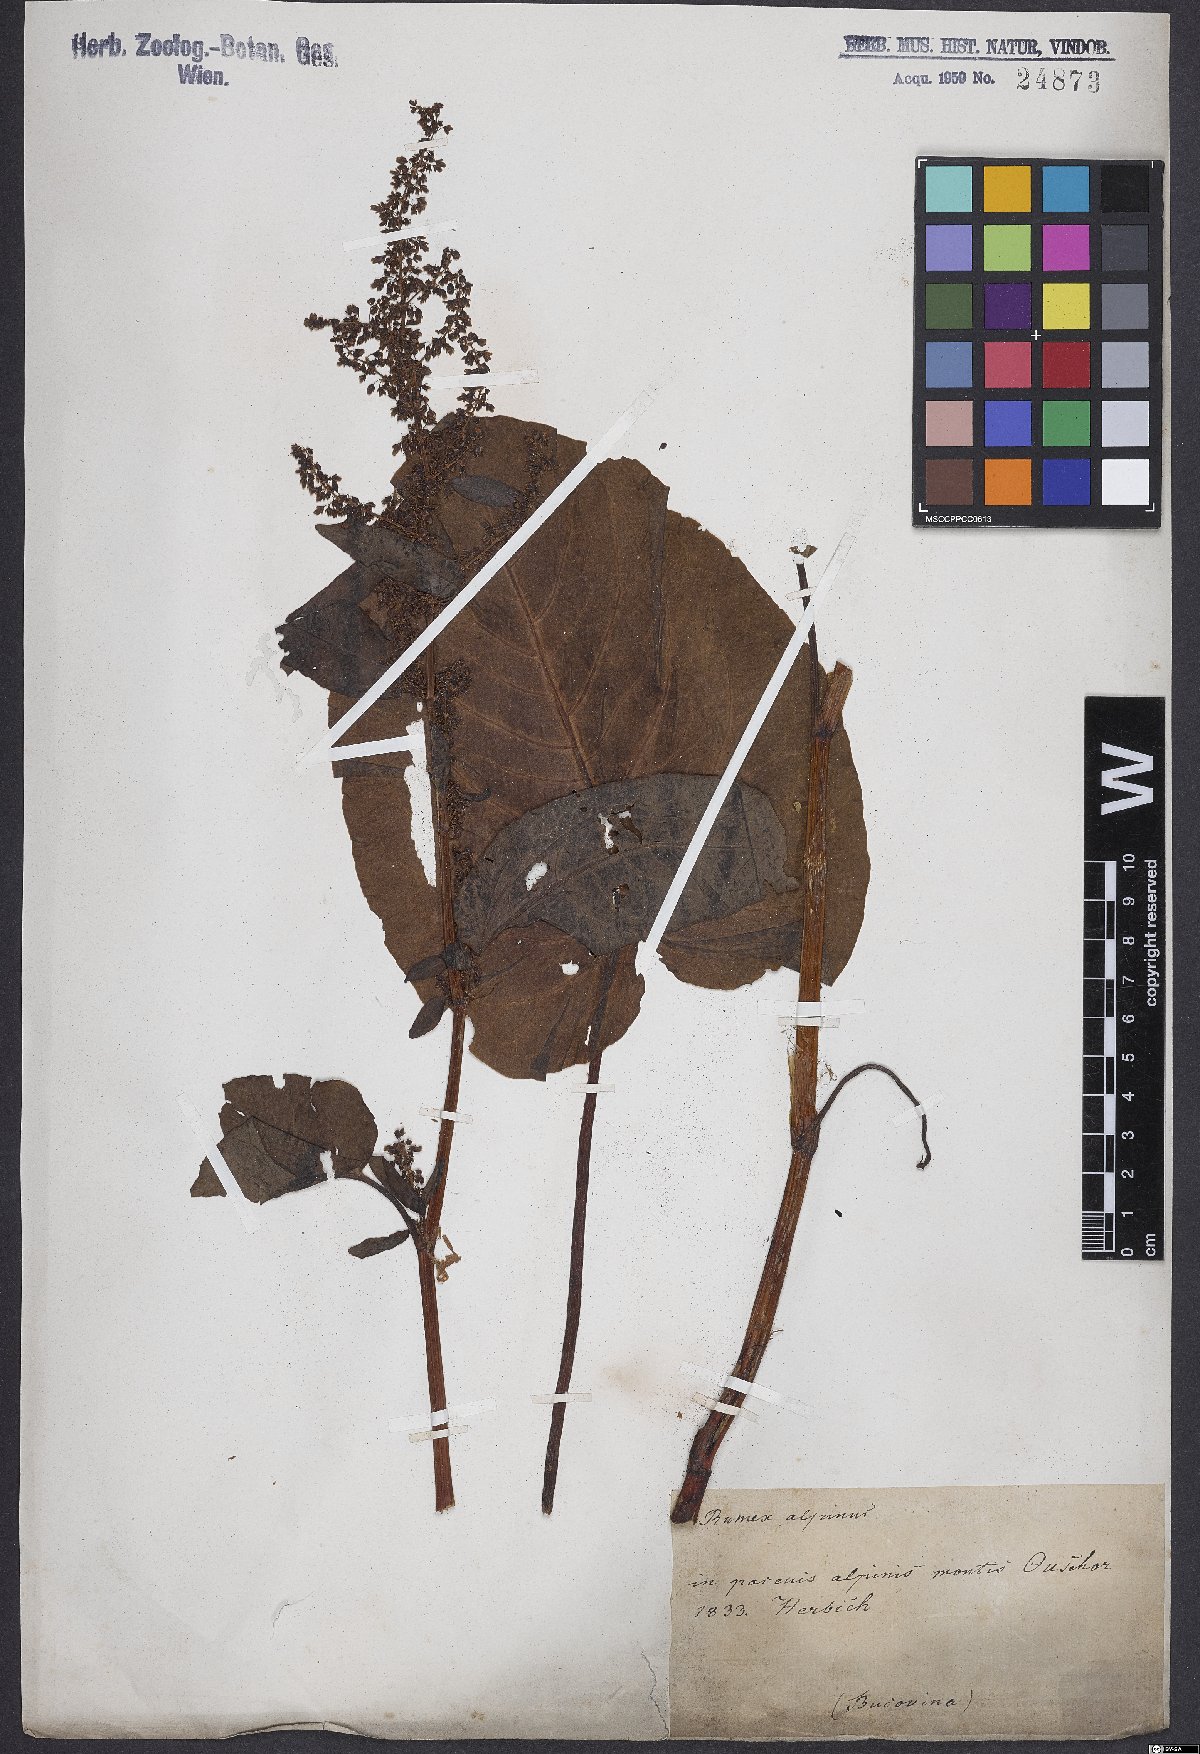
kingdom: Plantae
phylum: Tracheophyta
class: Magnoliopsida
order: Caryophyllales
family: Polygonaceae
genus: Rumex
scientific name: Rumex alpinus
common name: Alpine dock
